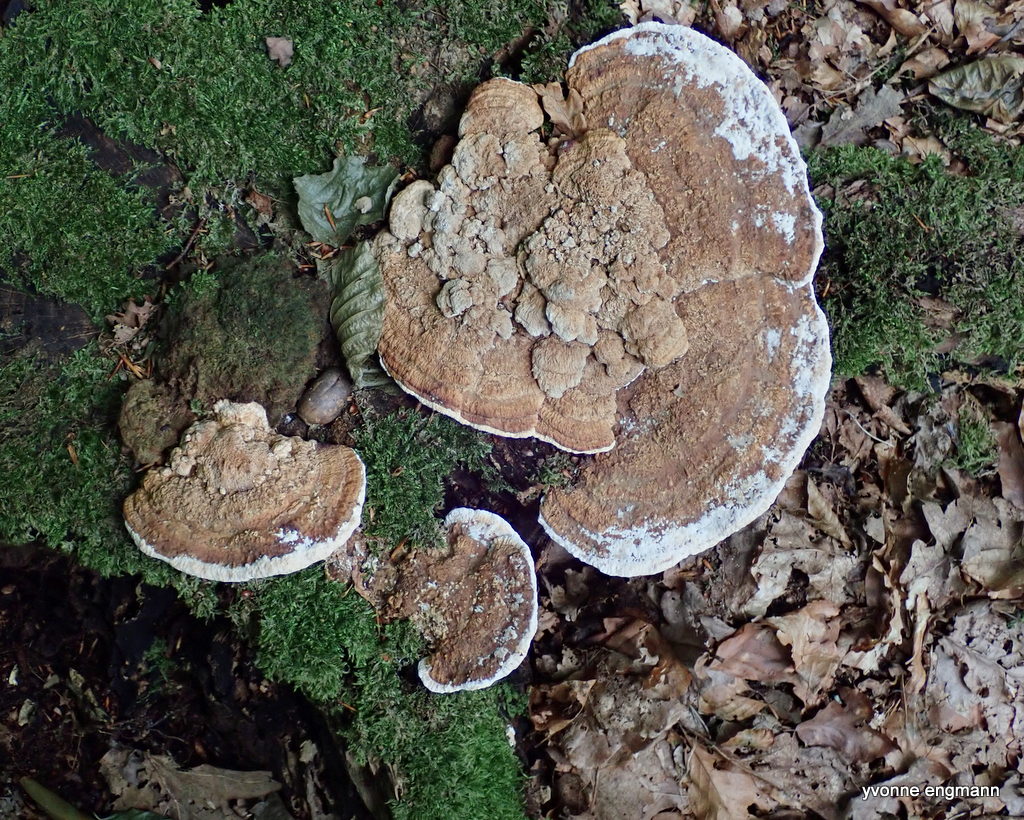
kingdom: Fungi
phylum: Basidiomycota
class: Agaricomycetes
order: Polyporales
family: Fomitopsidaceae
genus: Daedalea
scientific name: Daedalea quercina
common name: ege-labyrintsvamp
